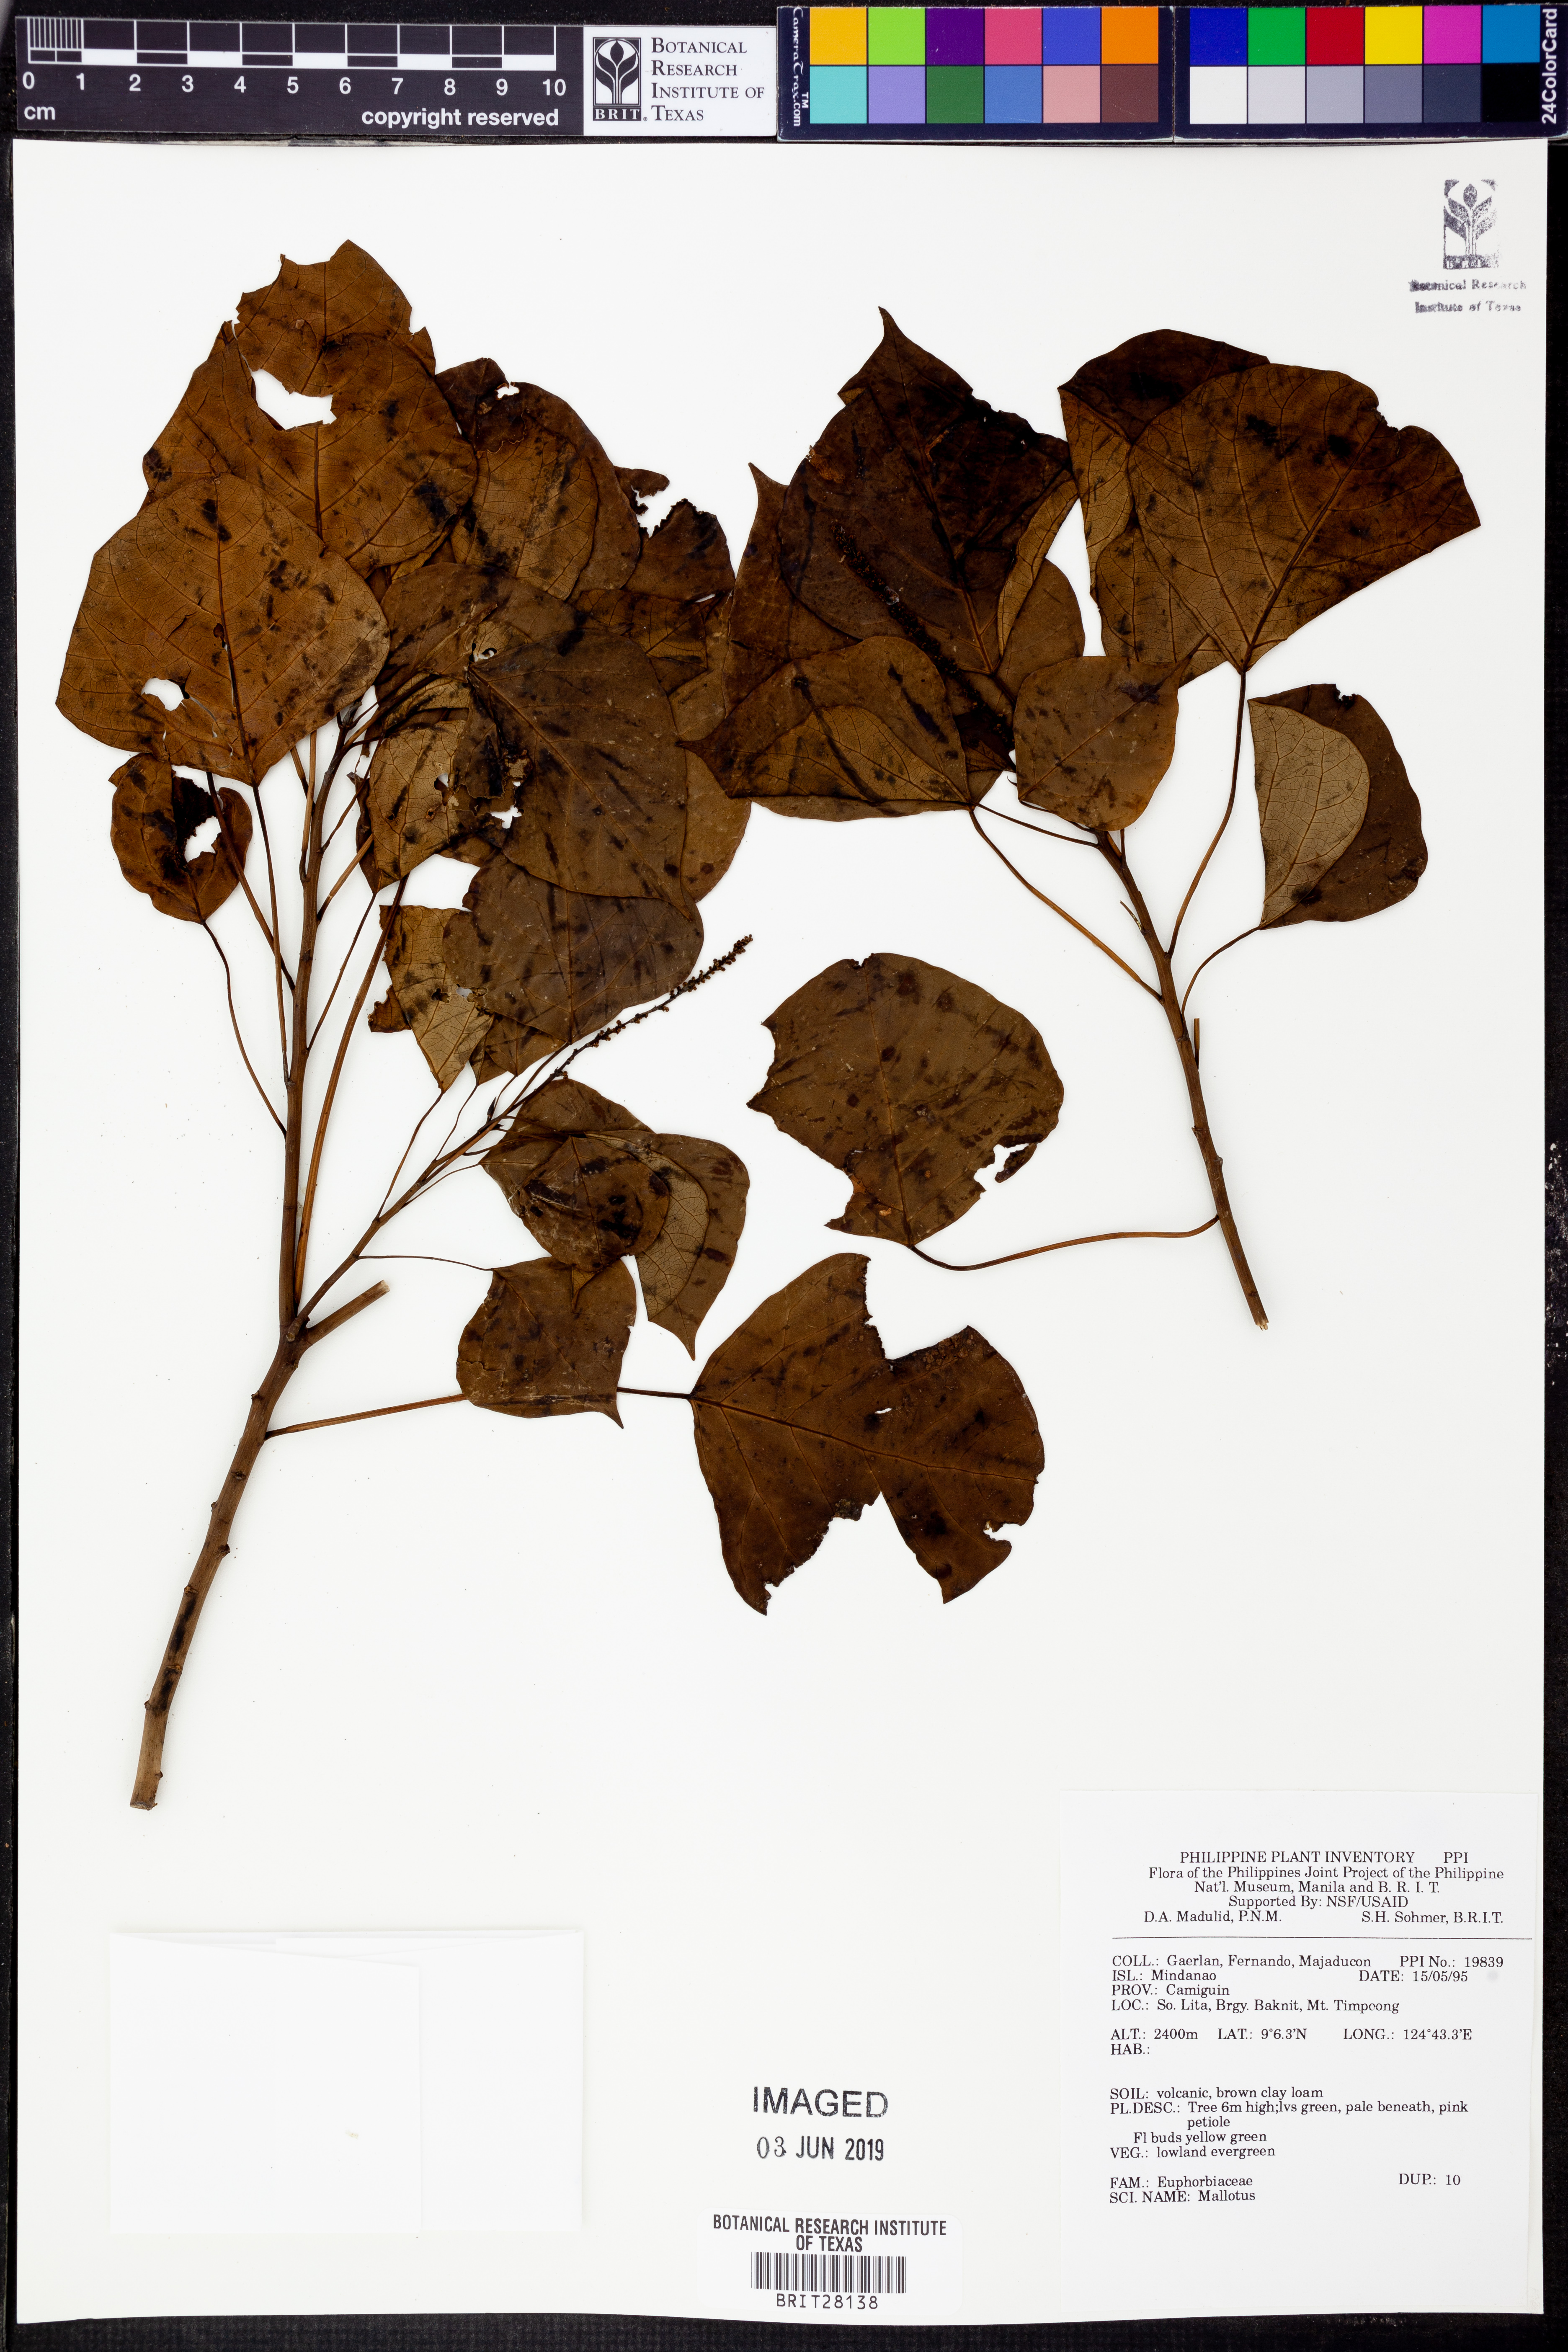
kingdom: Plantae
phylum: Tracheophyta
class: Magnoliopsida
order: Malpighiales
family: Euphorbiaceae
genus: Mallotus
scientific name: Mallotus
